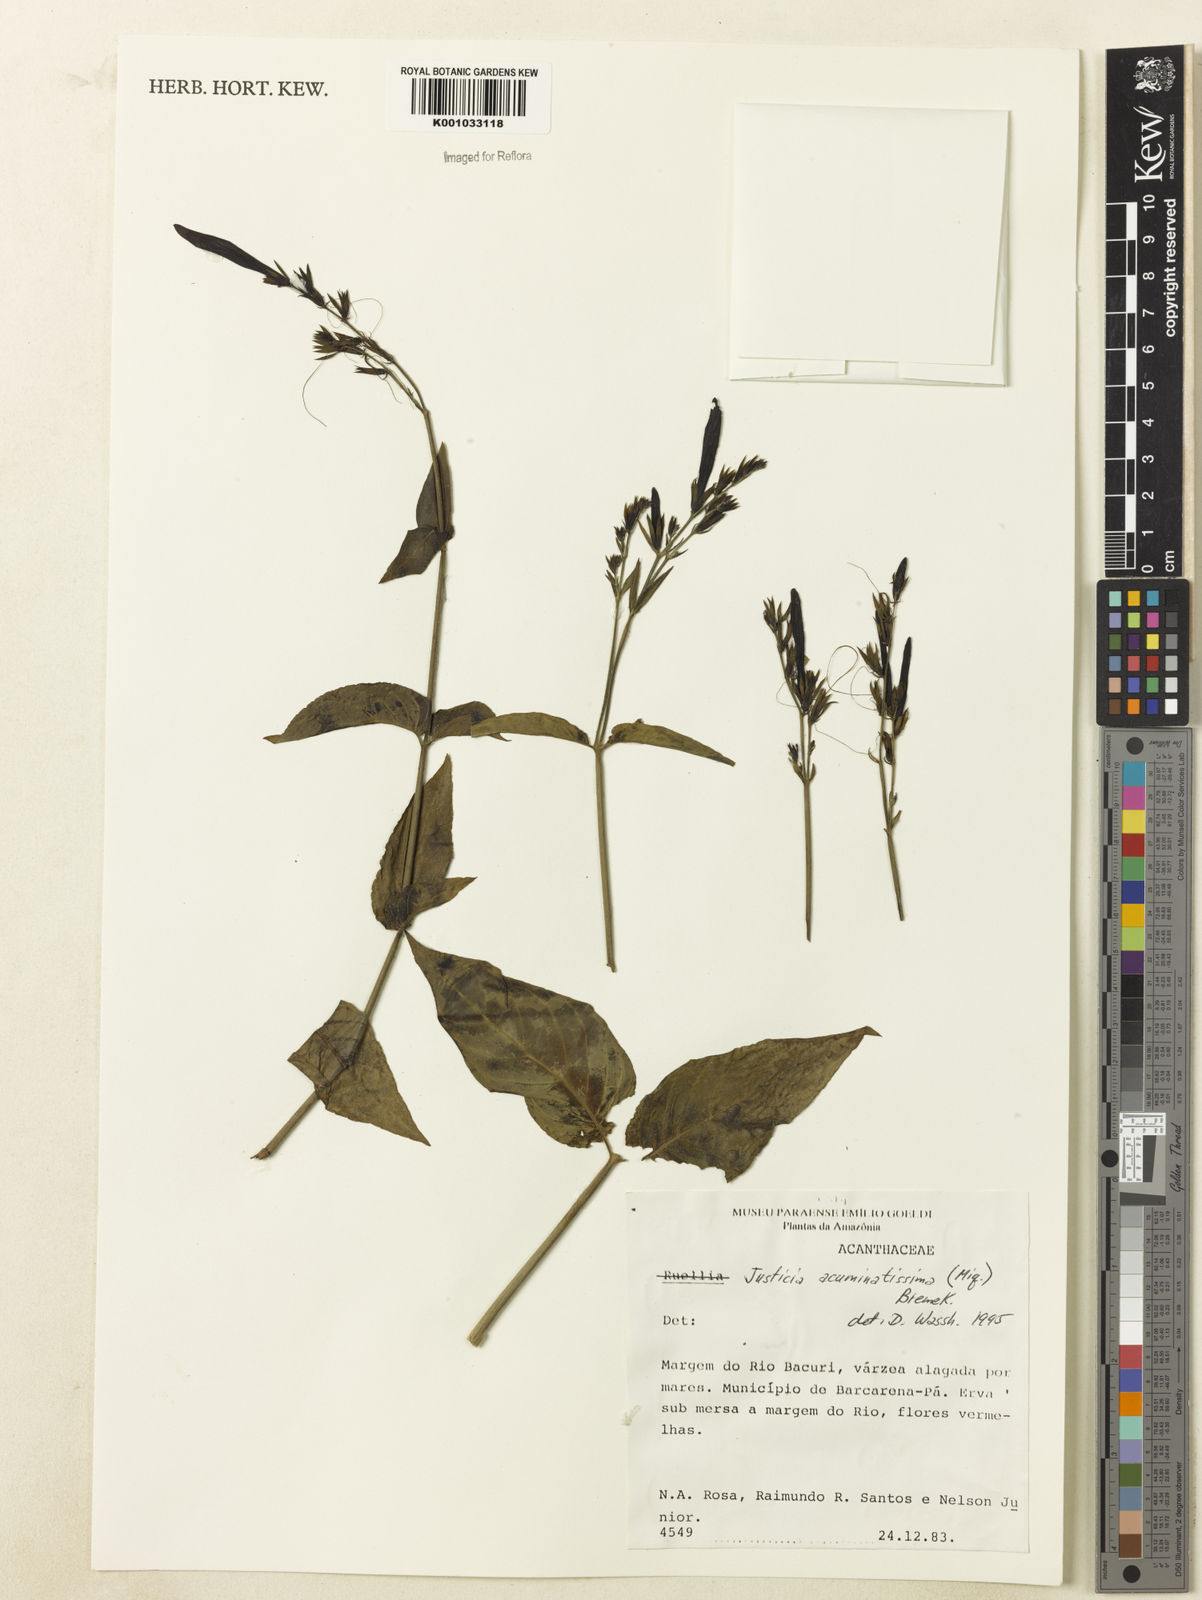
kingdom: Plantae
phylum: Tracheophyta
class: Magnoliopsida
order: Lamiales
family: Acanthaceae
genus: Dianthera
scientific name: Dianthera calycina
